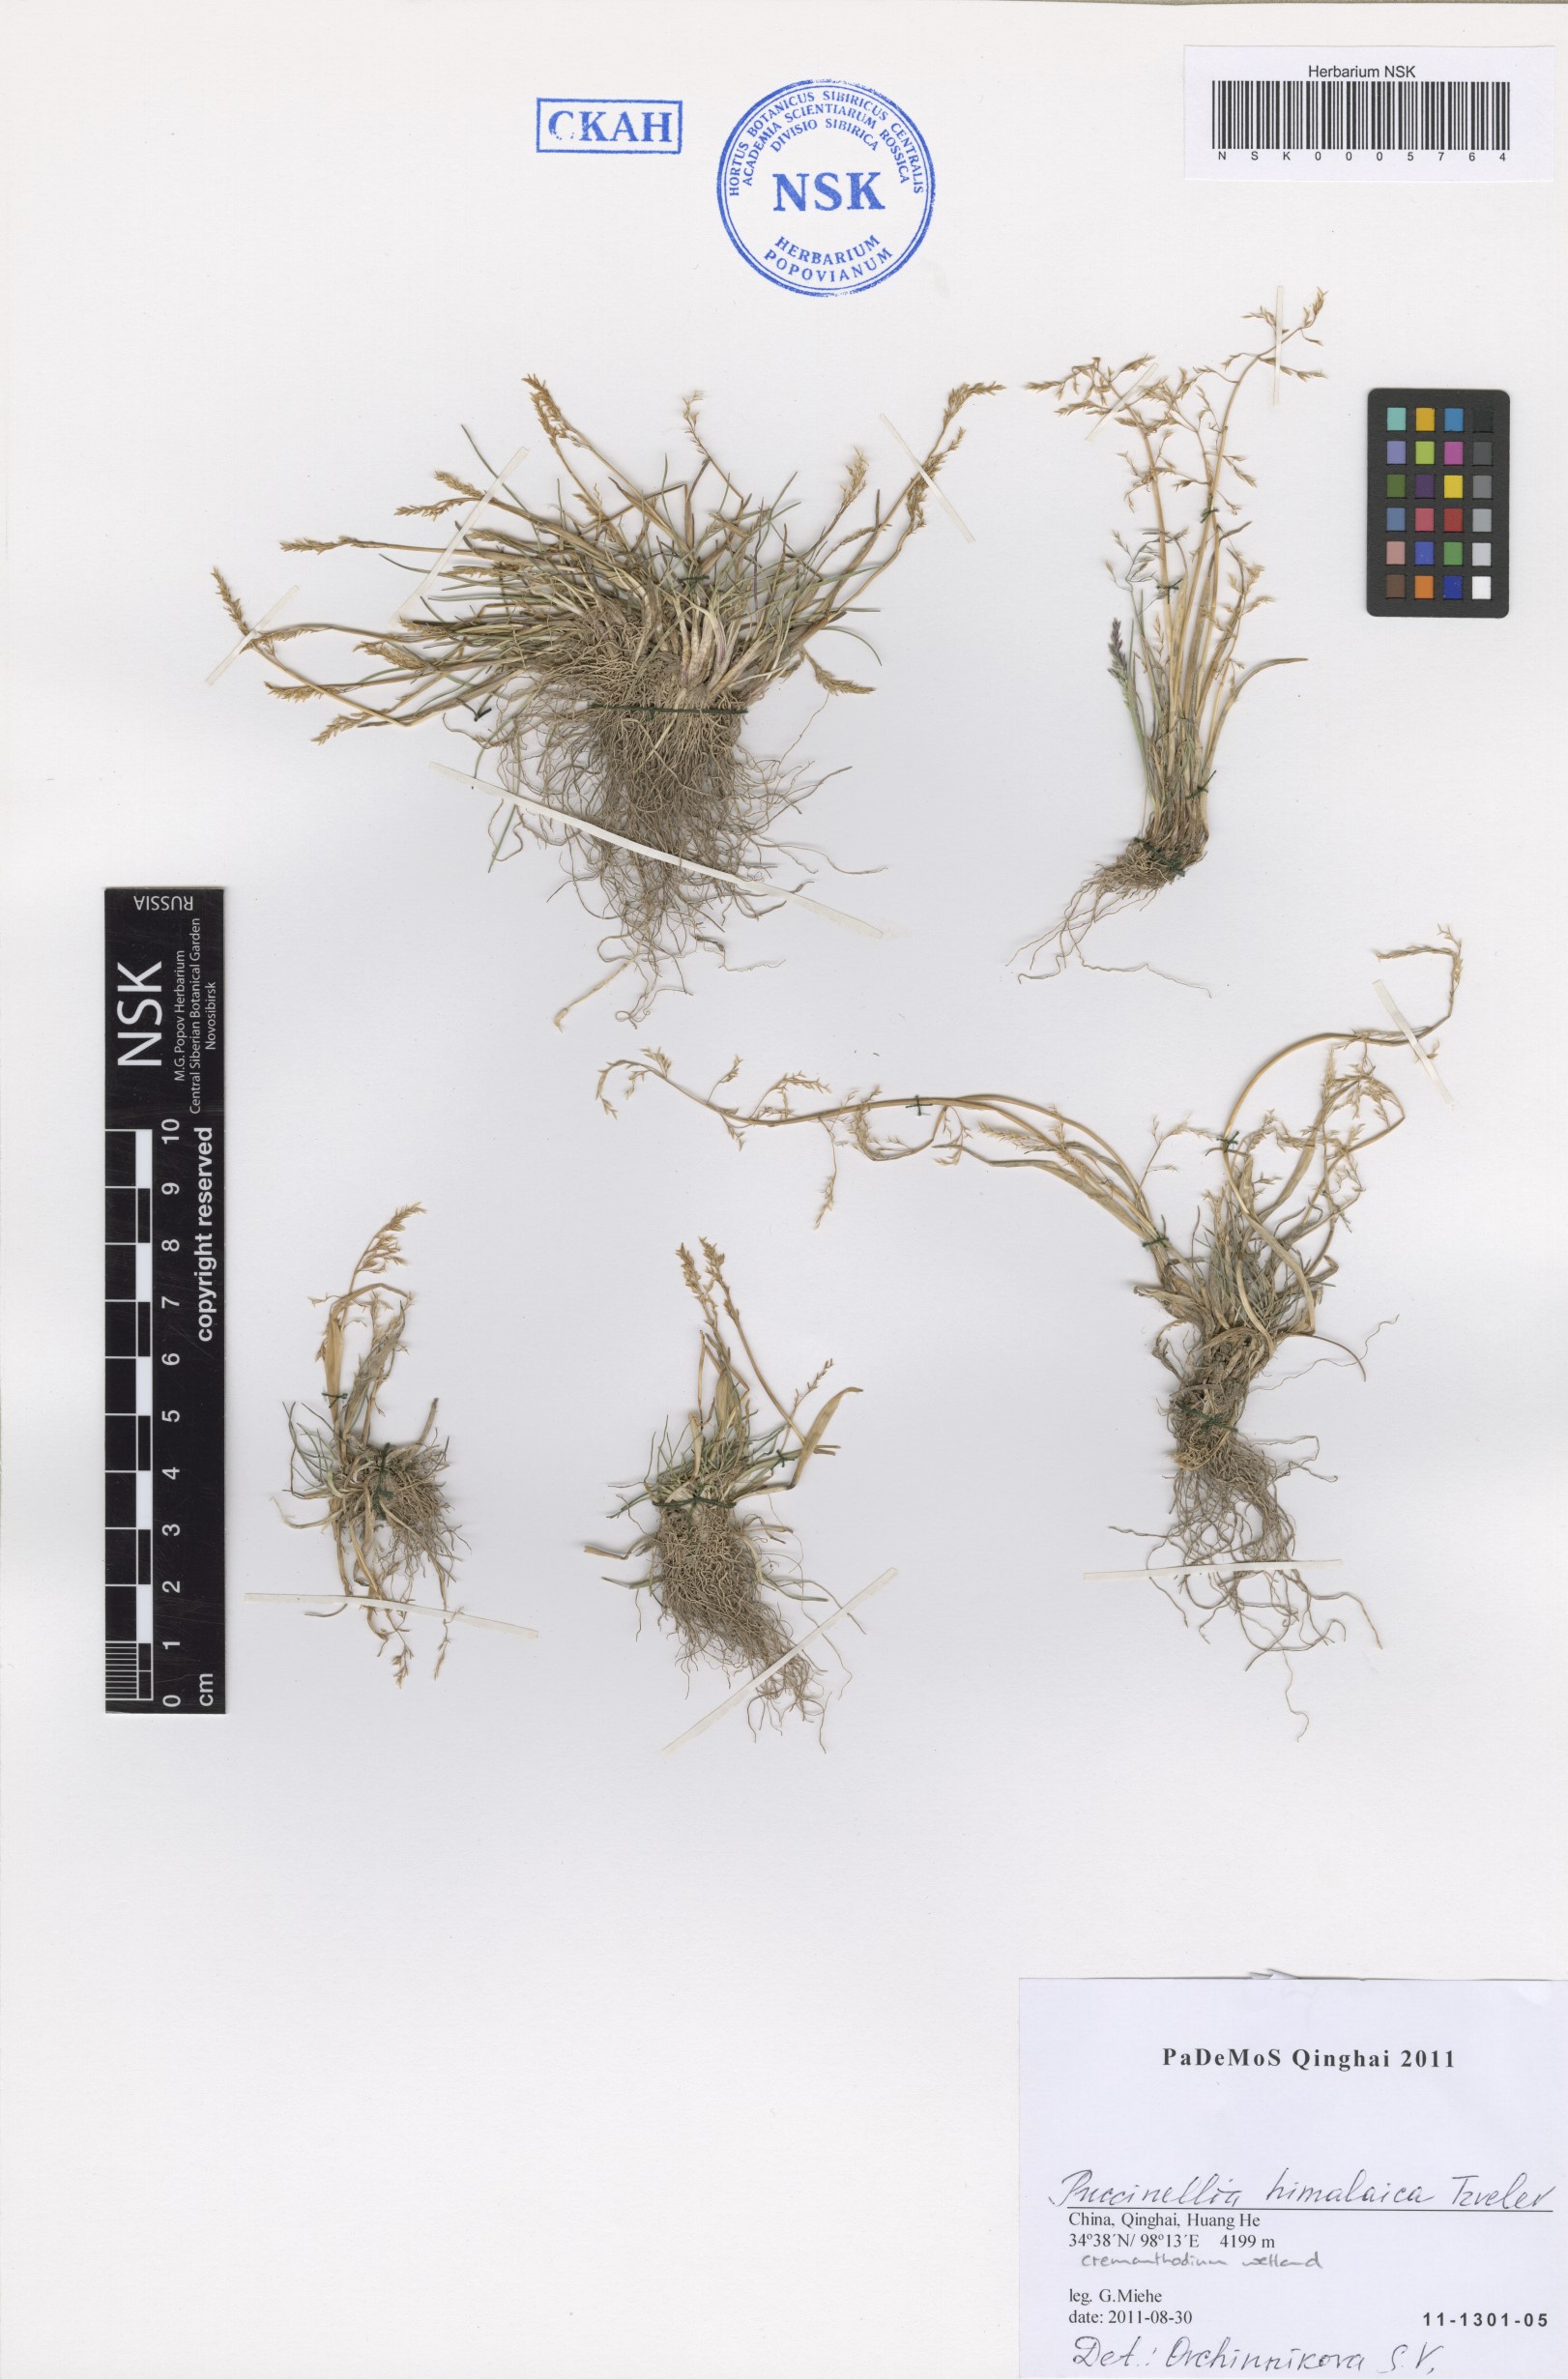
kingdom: Plantae
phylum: Tracheophyta
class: Liliopsida
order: Poales
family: Poaceae
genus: Puccinellia
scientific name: Puccinellia himalaica
